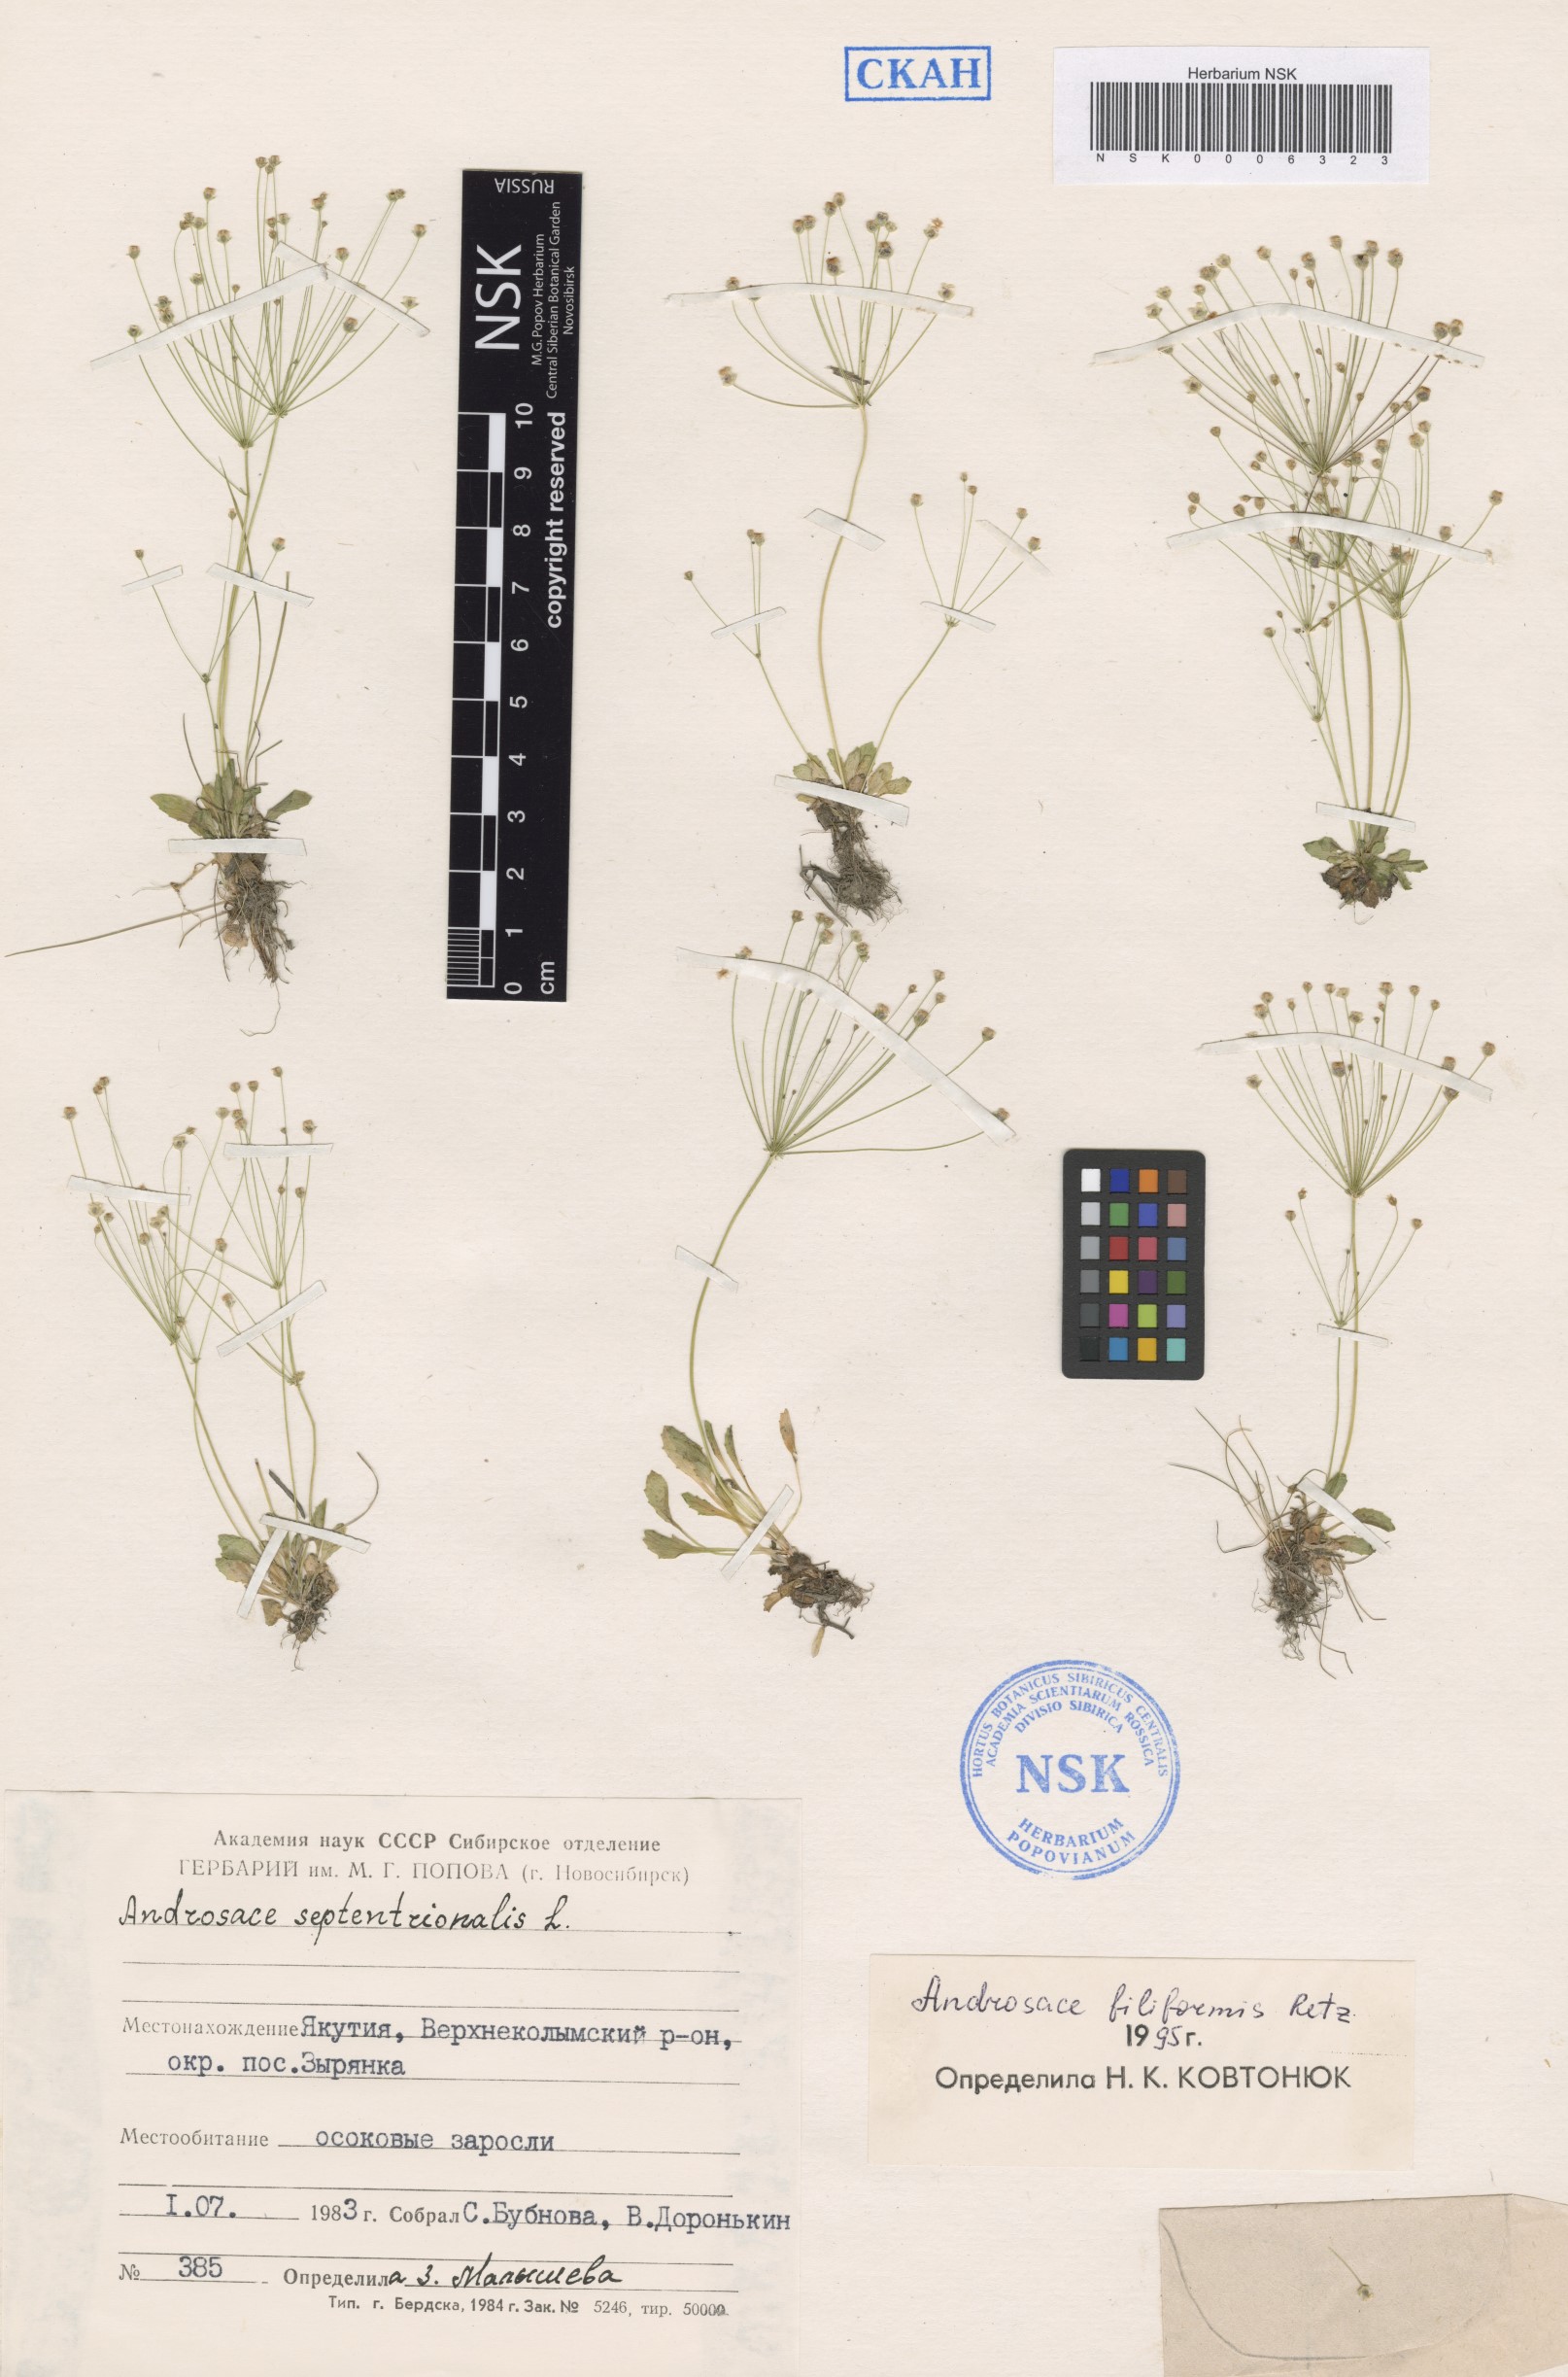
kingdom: Plantae
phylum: Tracheophyta
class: Magnoliopsida
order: Ericales
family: Primulaceae
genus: Androsace
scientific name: Androsace filiformis
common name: Filiform rock jasmine
